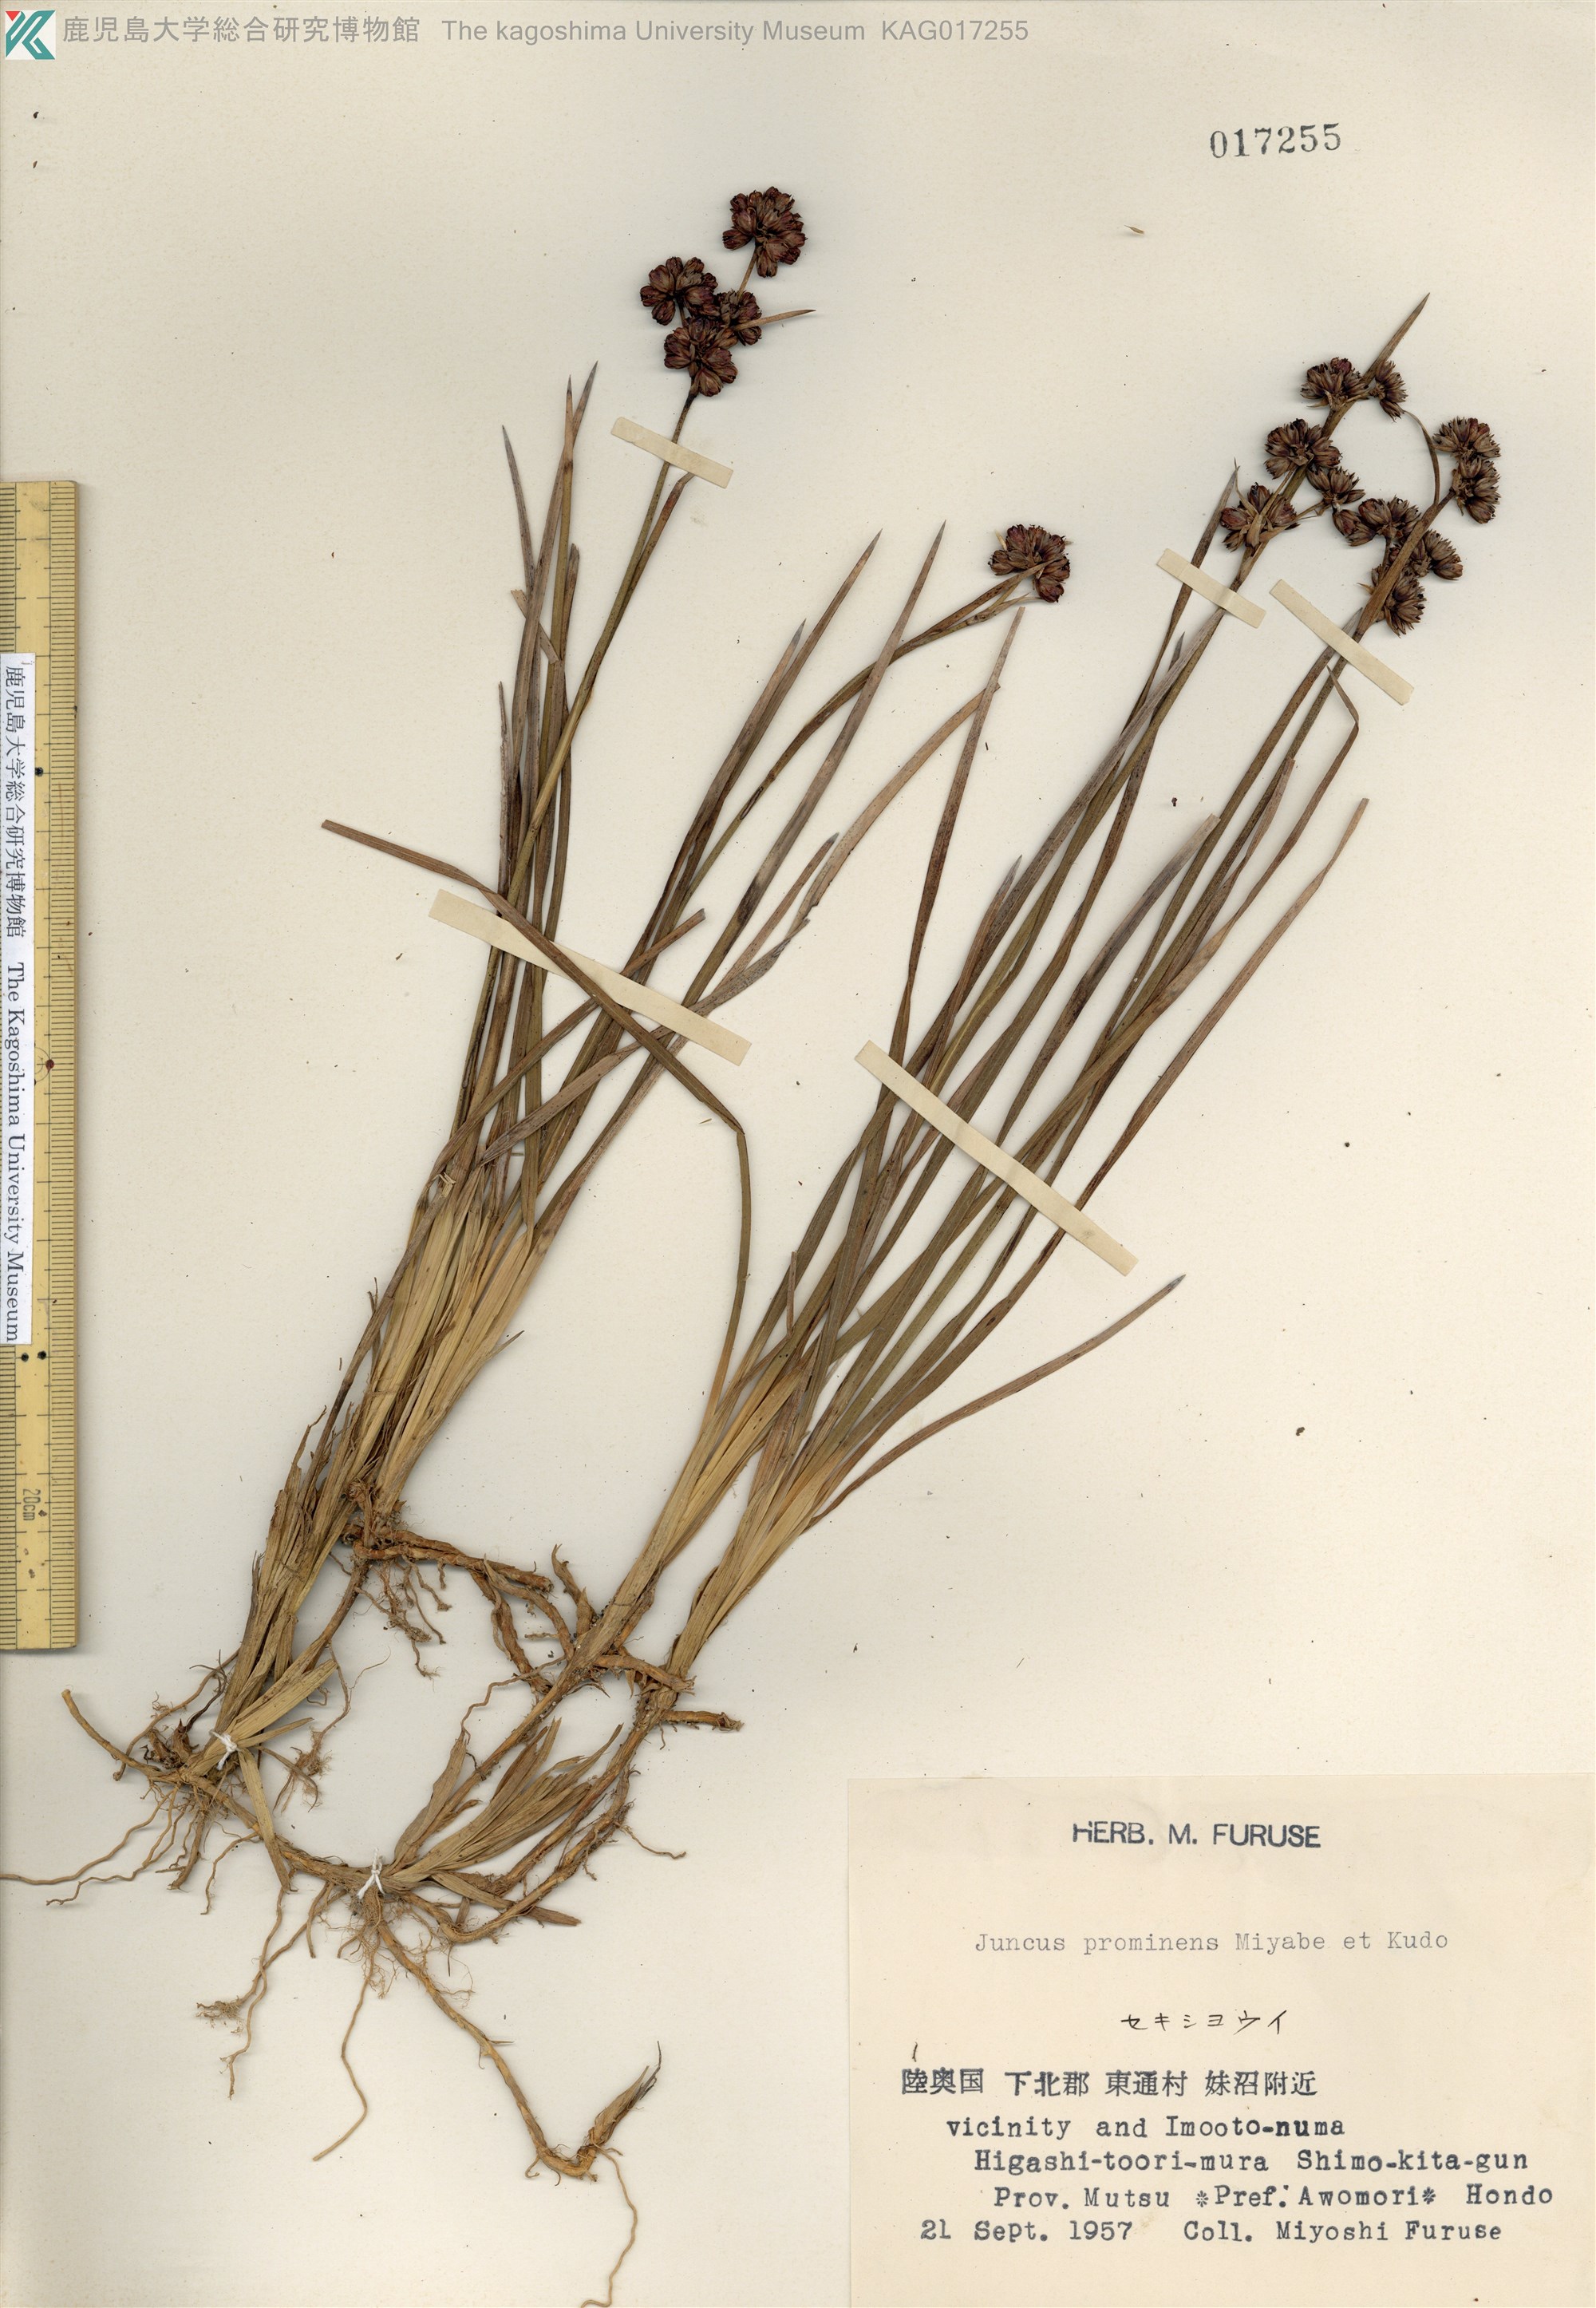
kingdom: Plantae
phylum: Tracheophyta
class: Liliopsida
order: Poales
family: Juncaceae
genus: Juncus
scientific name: Juncus covillei
